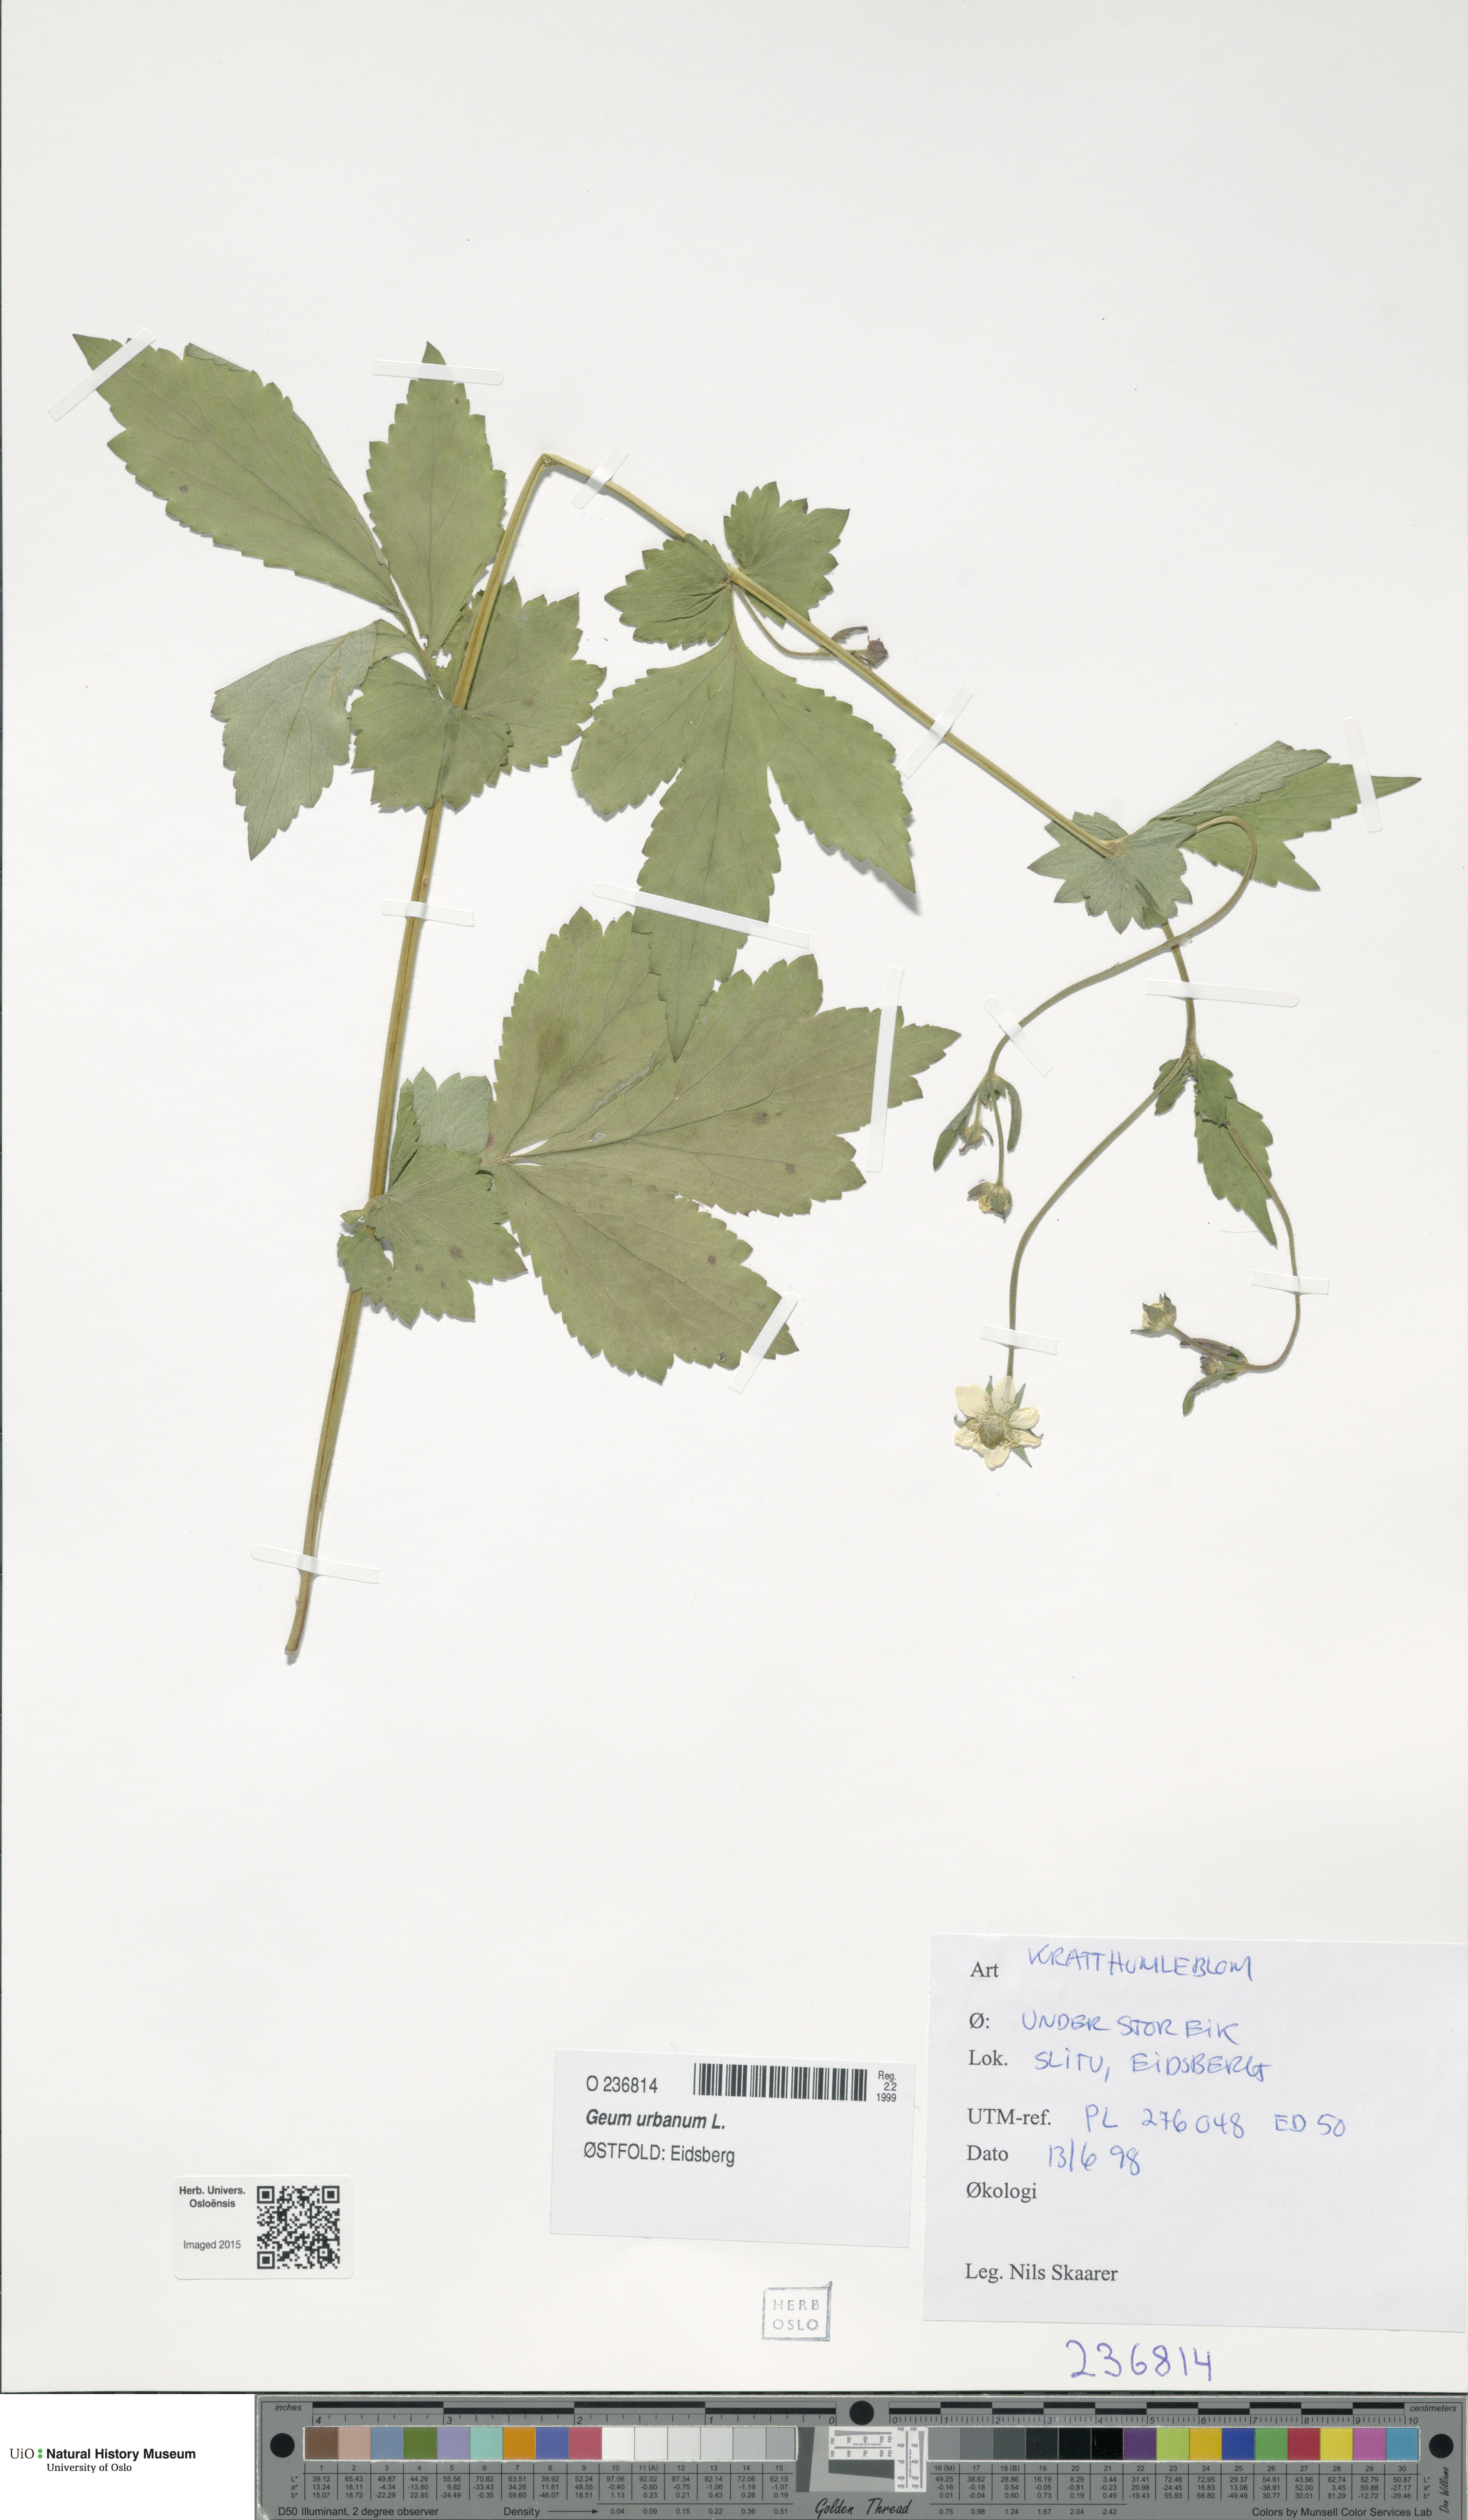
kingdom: Plantae
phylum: Tracheophyta
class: Magnoliopsida
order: Rosales
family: Rosaceae
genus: Geum
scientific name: Geum urbanum
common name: Wood avens
